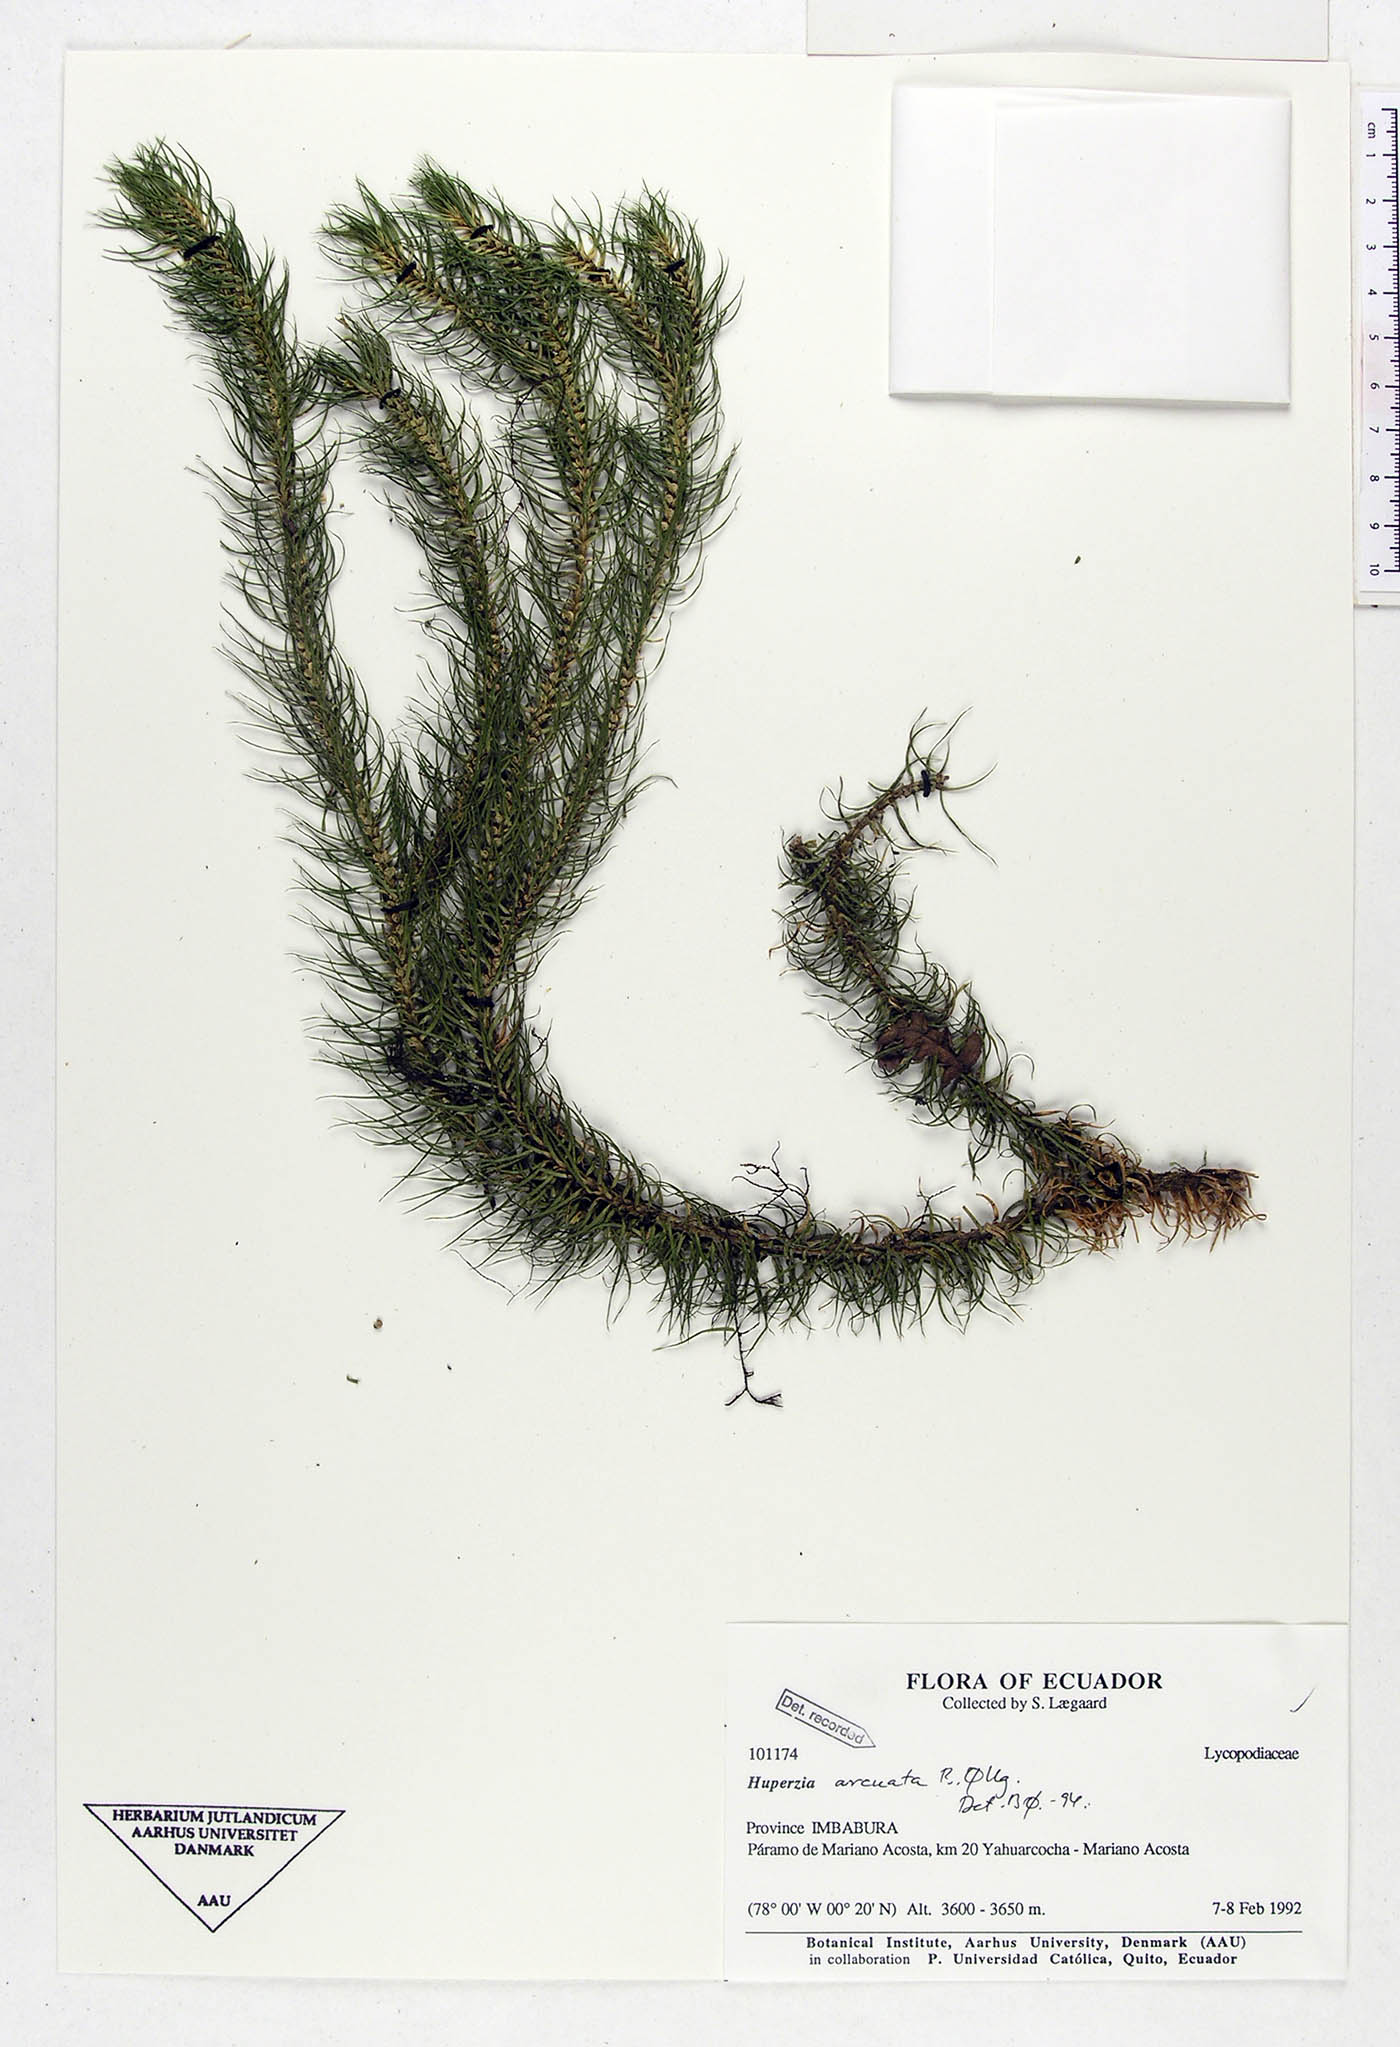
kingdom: Plantae
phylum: Tracheophyta
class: Lycopodiopsida
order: Lycopodiales
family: Lycopodiaceae
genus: Phlegmariurus
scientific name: Phlegmariurus arcuatus
